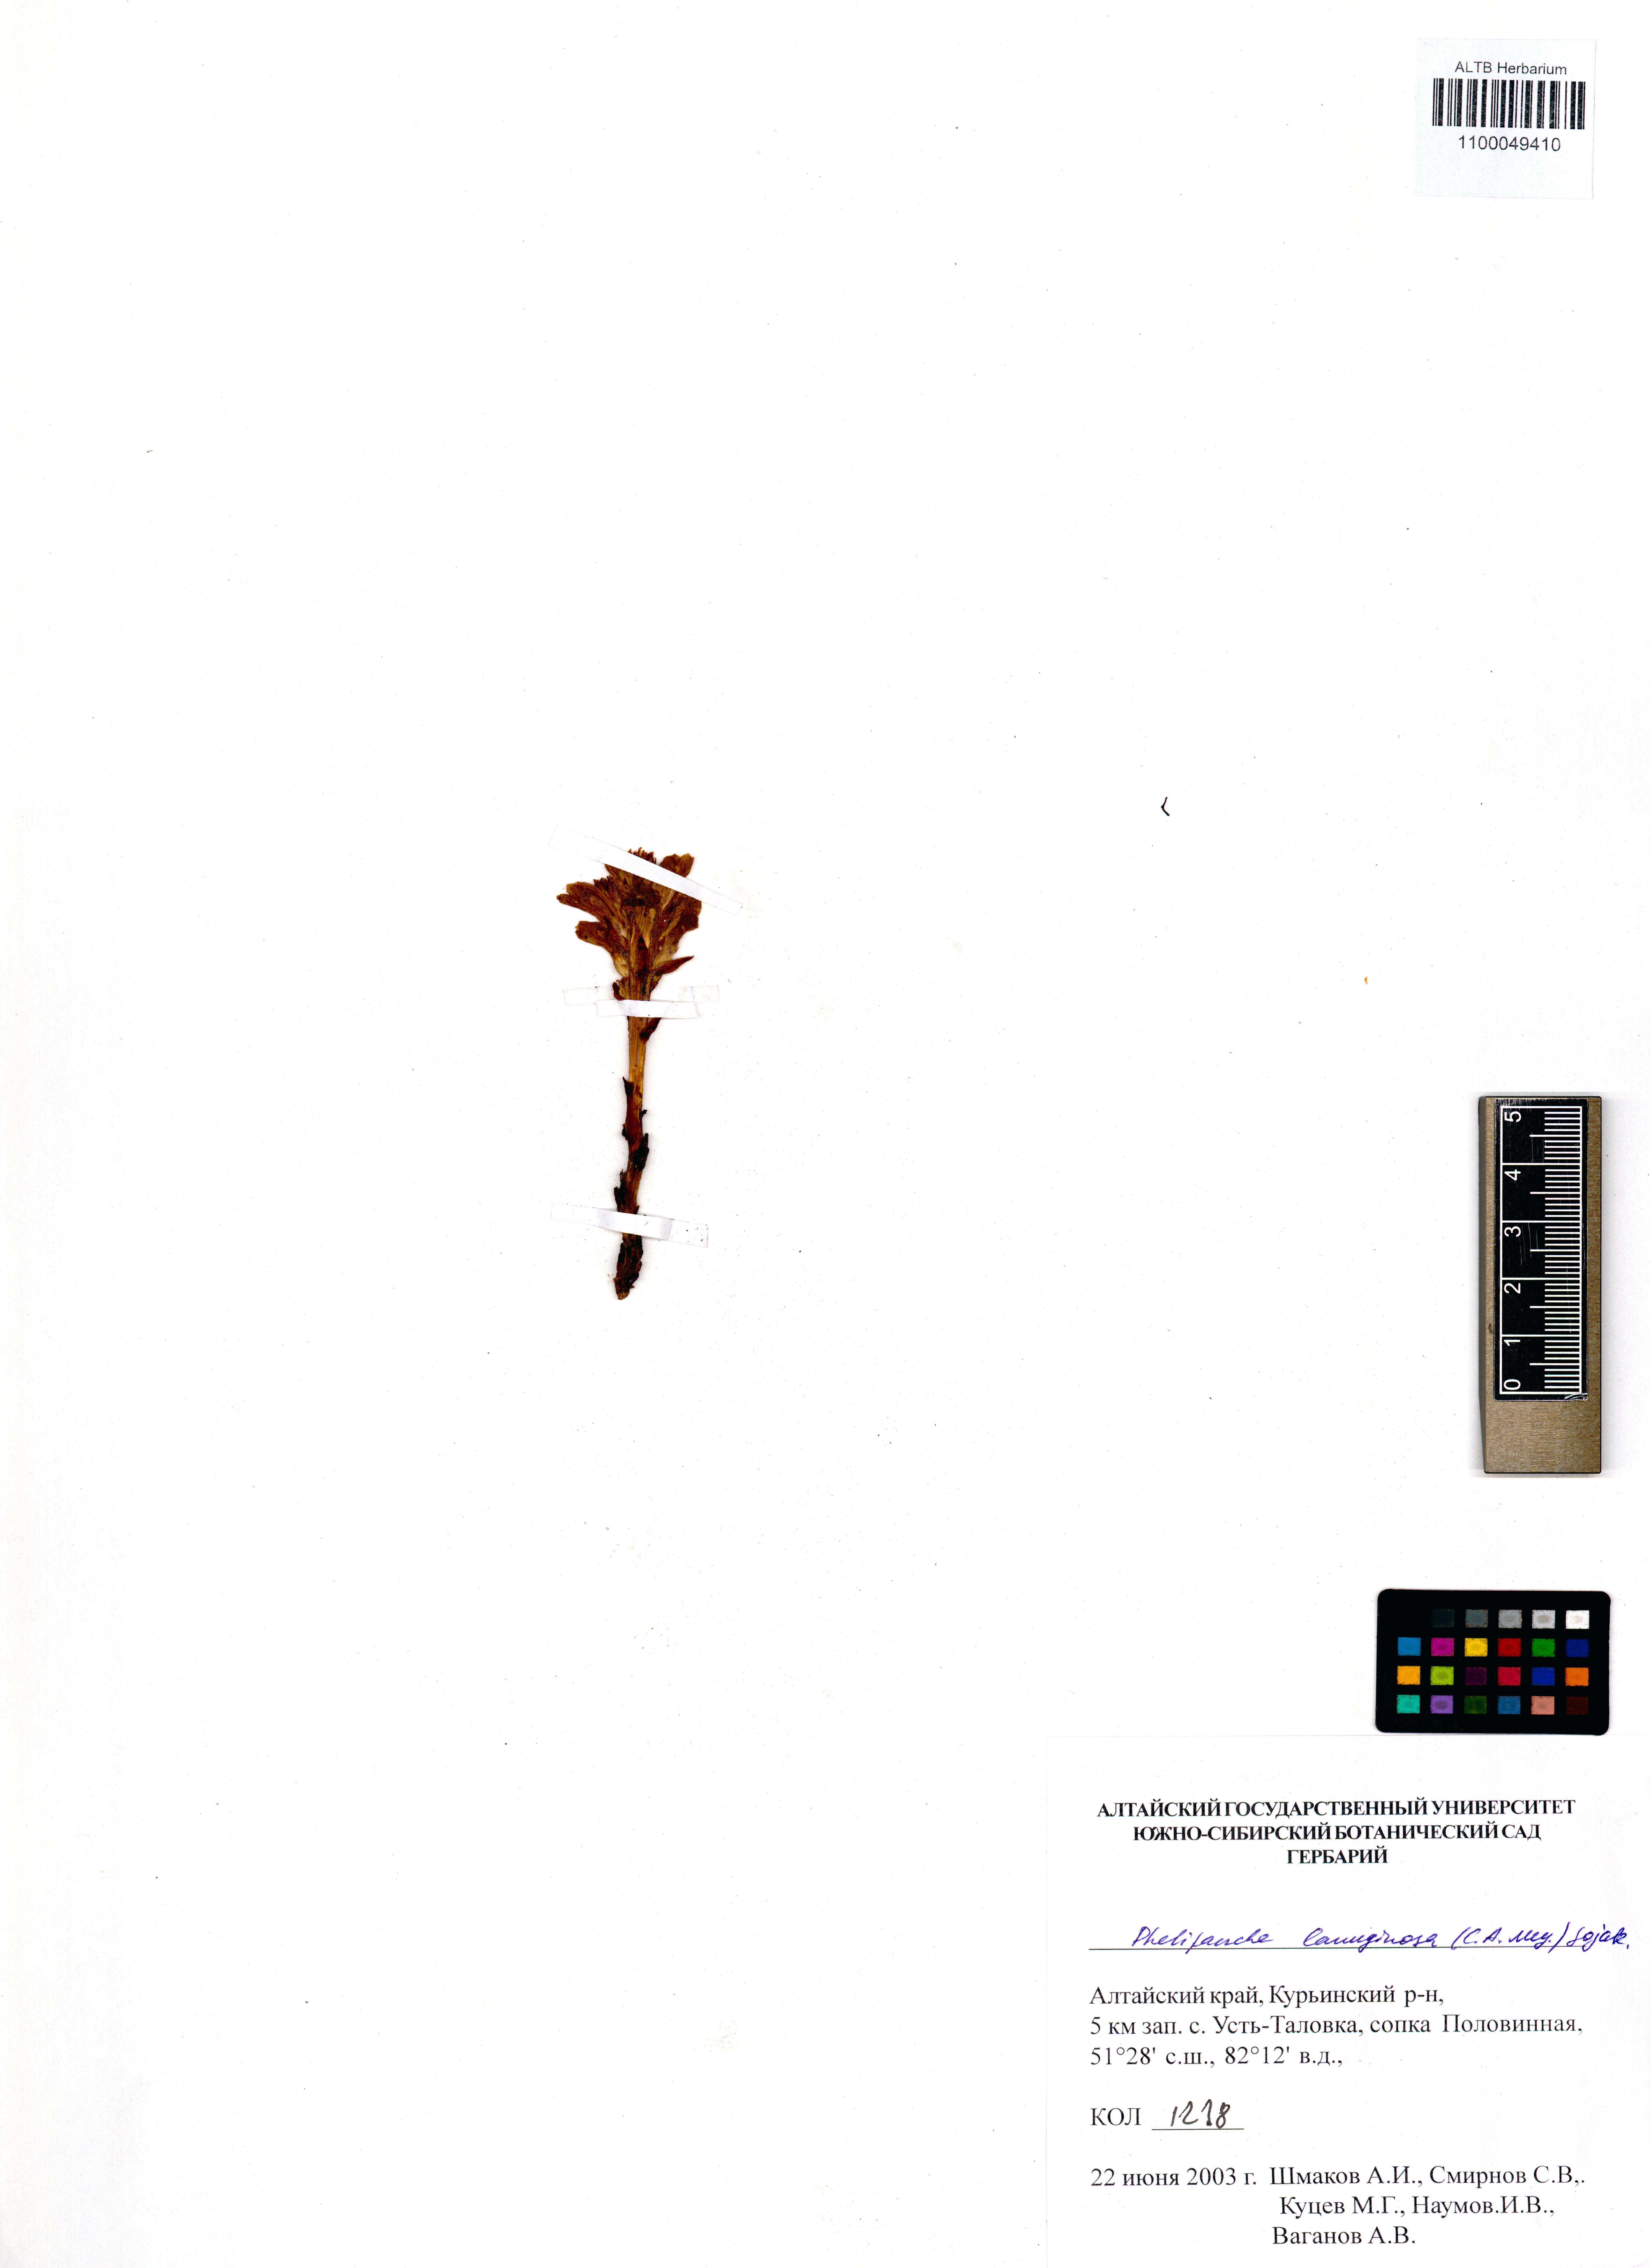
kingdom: Plantae
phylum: Tracheophyta
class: Magnoliopsida
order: Lamiales
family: Orobanchaceae
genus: Phelipanche
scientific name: Phelipanche caesia
